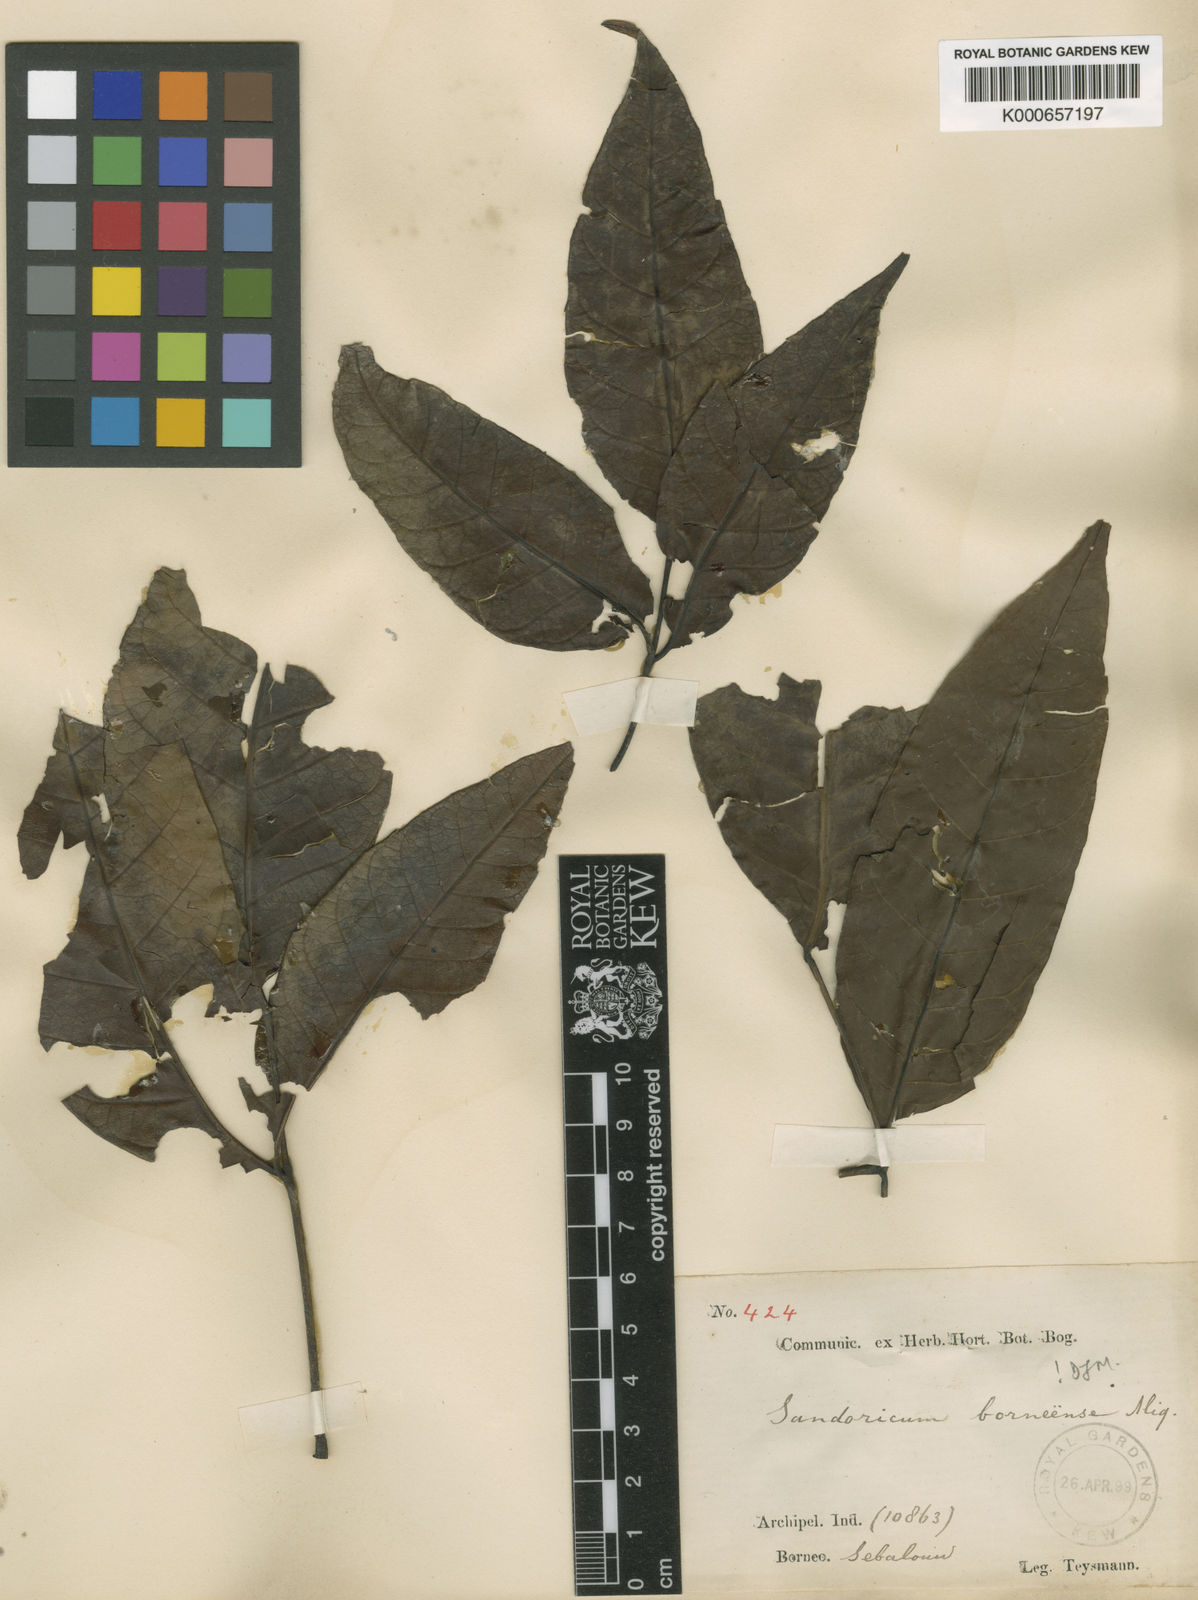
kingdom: Plantae
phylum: Tracheophyta
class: Magnoliopsida
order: Sapindales
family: Meliaceae
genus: Sandoricum
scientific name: Sandoricum borneense
